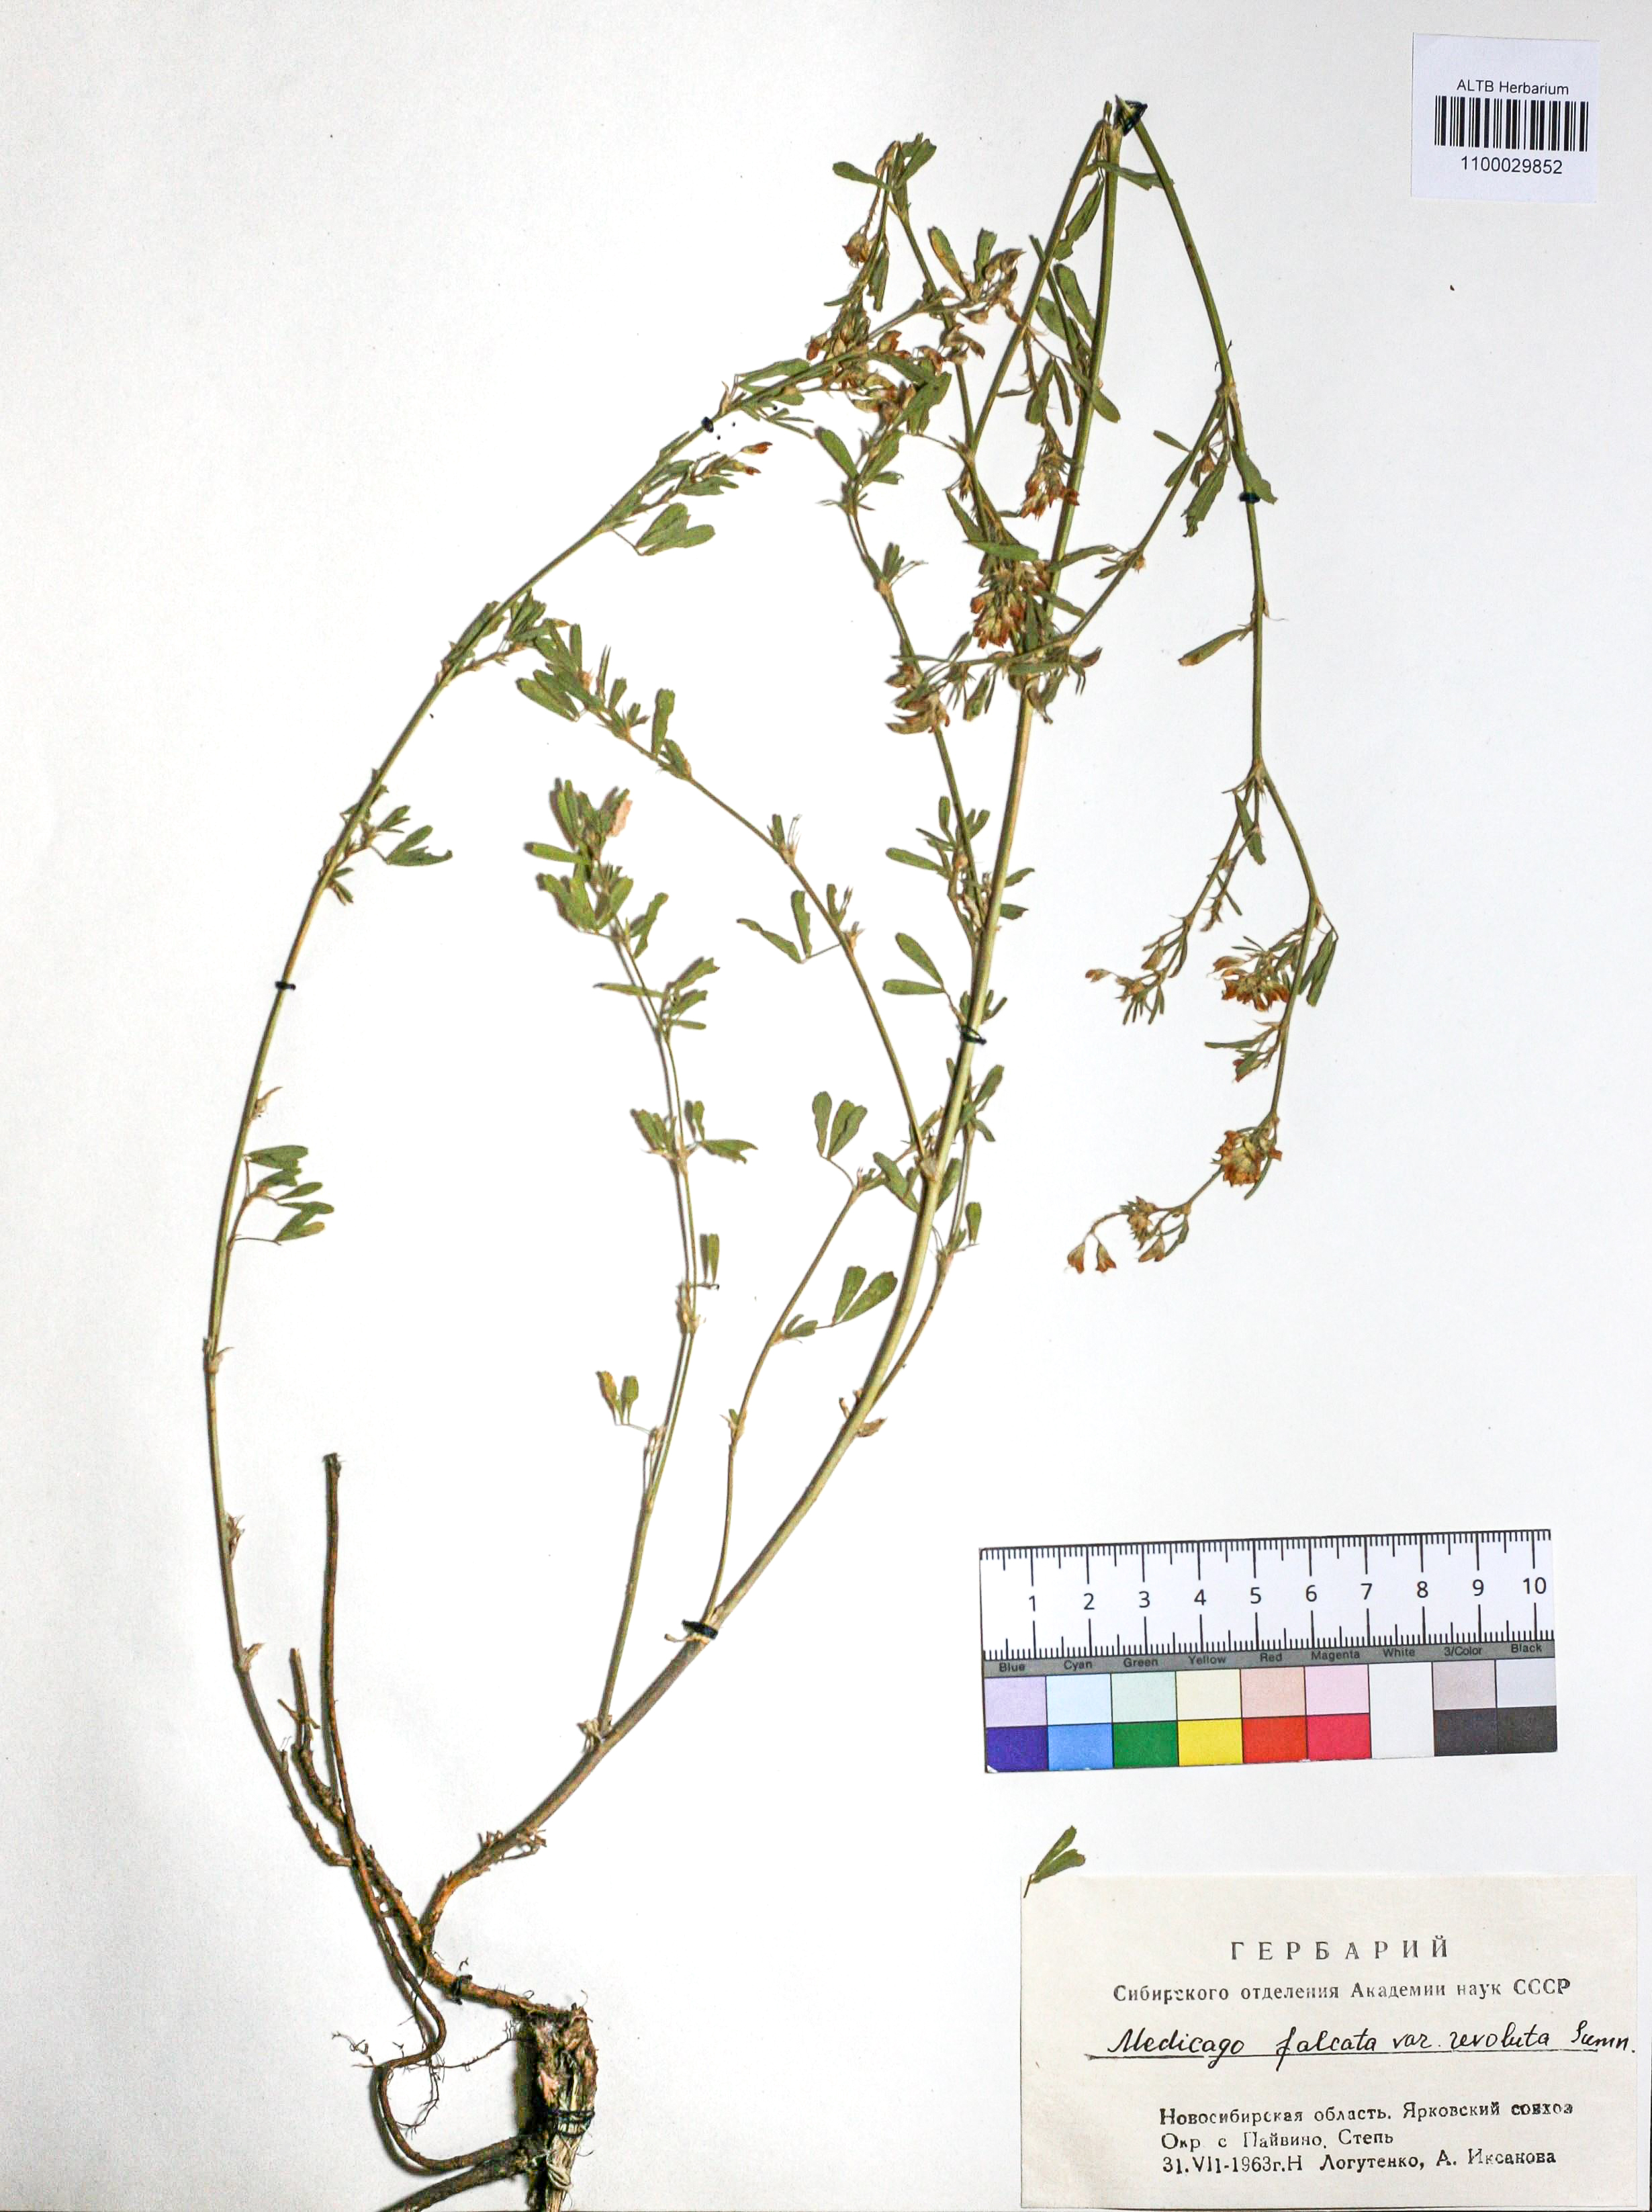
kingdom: Plantae
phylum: Tracheophyta
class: Magnoliopsida
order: Fabales
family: Fabaceae
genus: Medicago
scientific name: Medicago falcata
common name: Sickle medick
